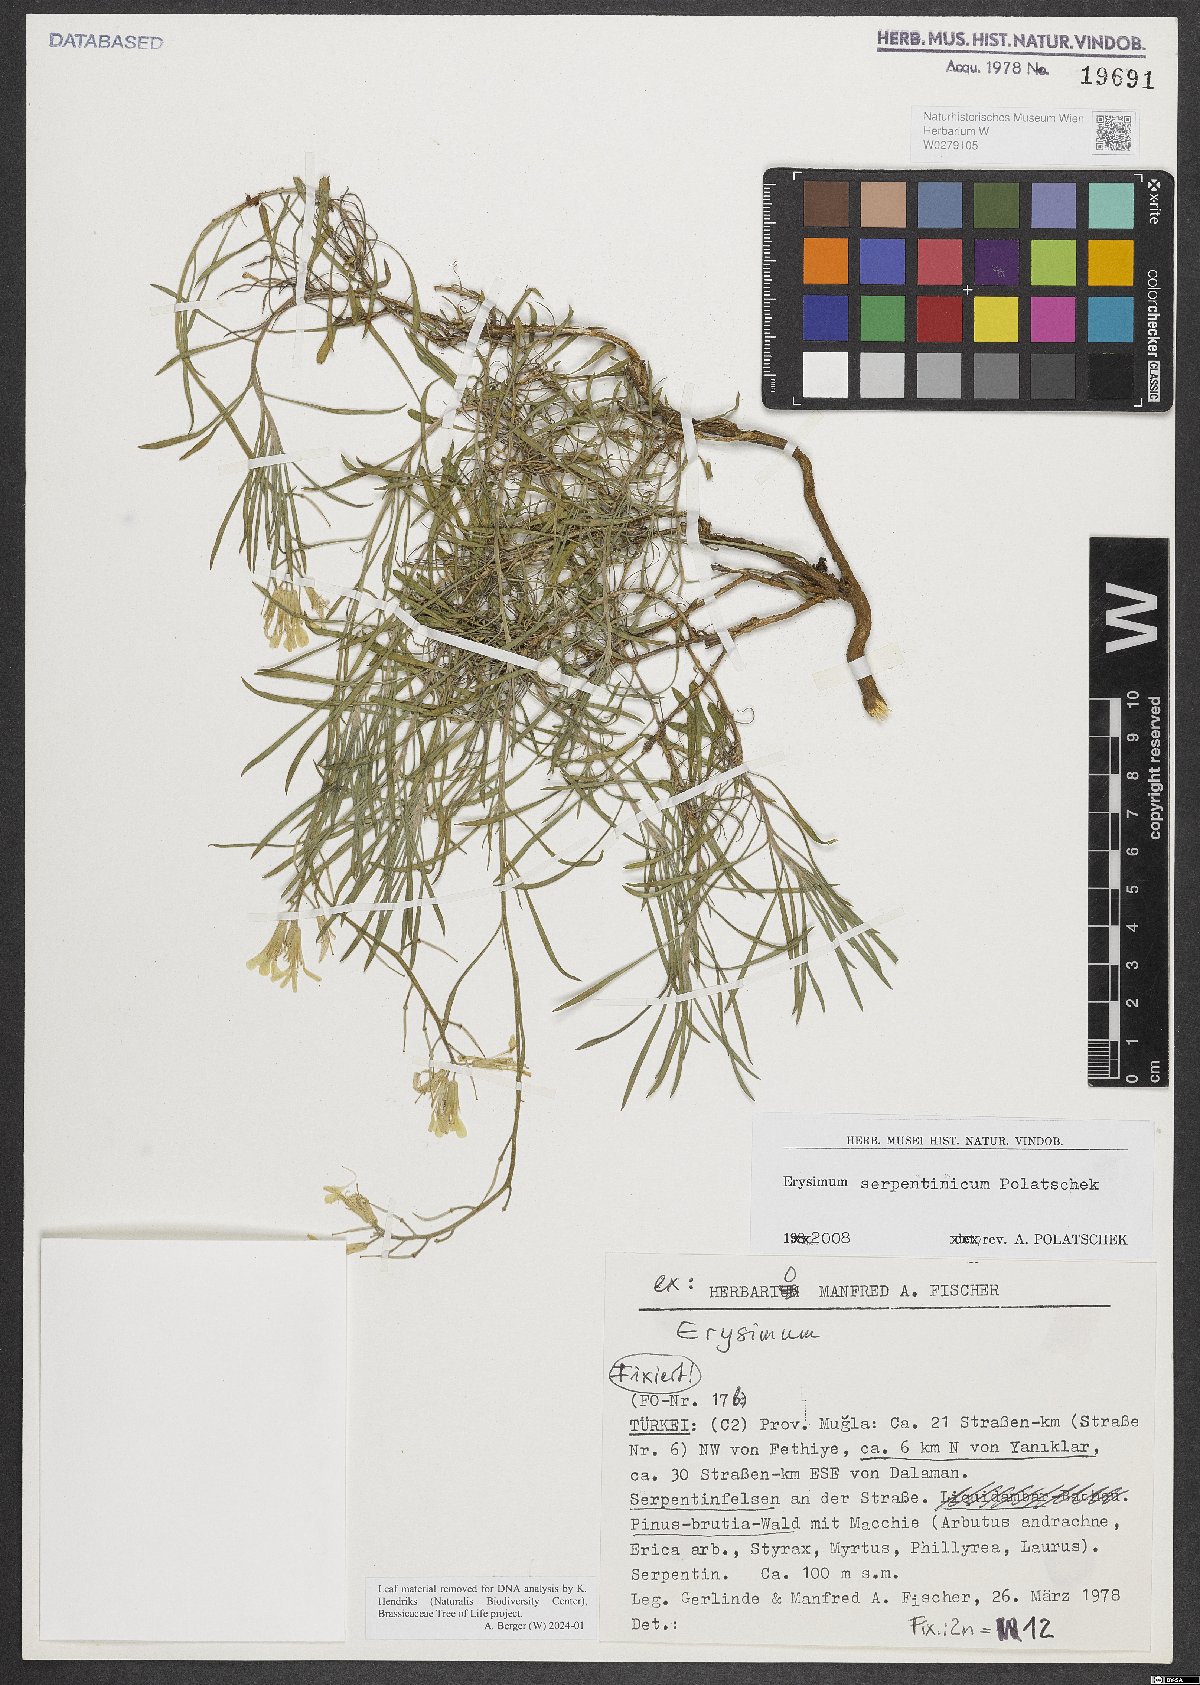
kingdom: Plantae
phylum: Tracheophyta
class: Magnoliopsida
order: Brassicales
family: Brassicaceae
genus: Erysimum
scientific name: Erysimum serpentinicum
